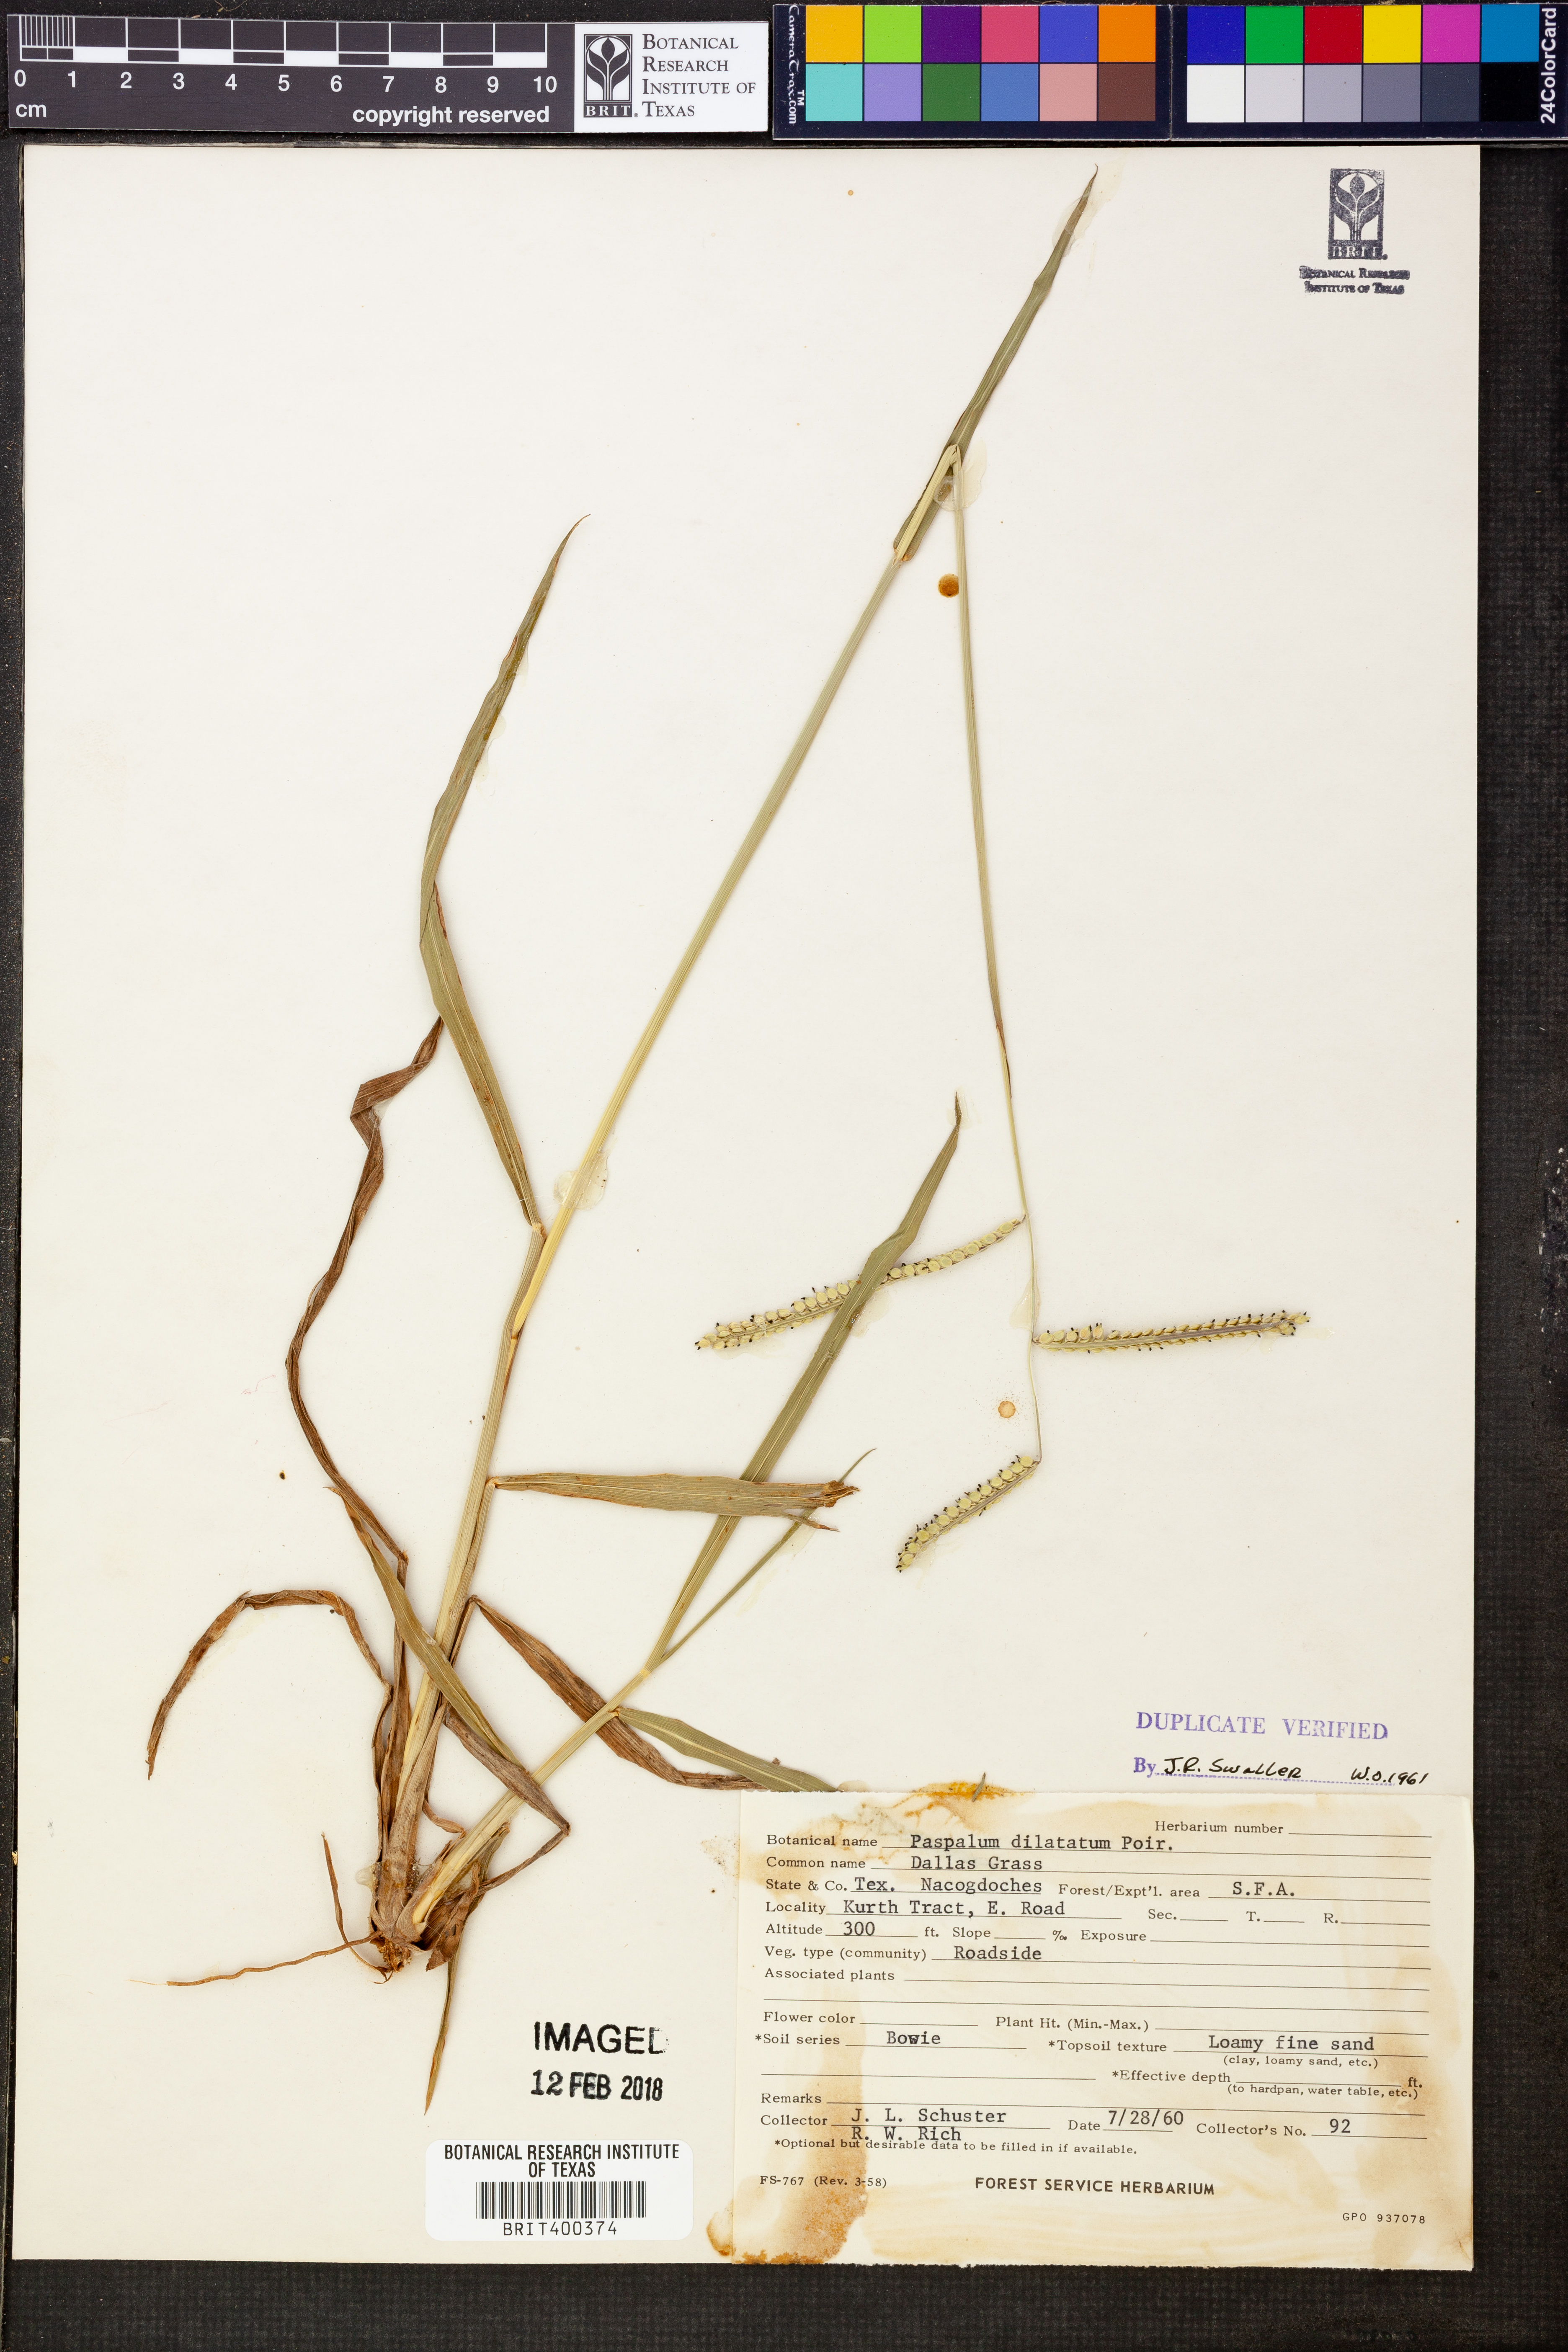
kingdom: Plantae
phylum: Tracheophyta
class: Liliopsida
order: Poales
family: Poaceae
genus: Paspalum
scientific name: Paspalum dilatatum
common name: Dallisgrass
